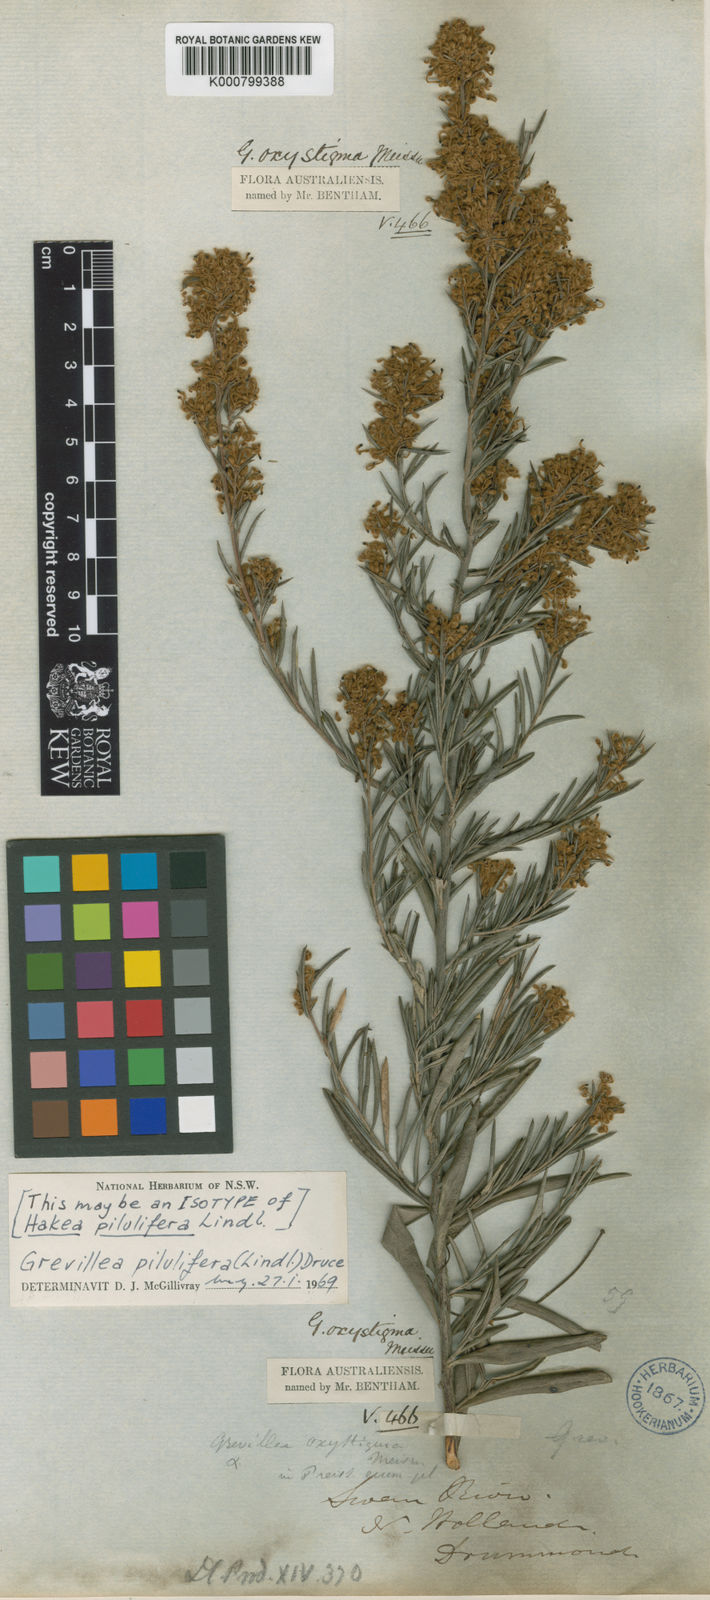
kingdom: Plantae
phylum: Tracheophyta
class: Magnoliopsida
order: Proteales
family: Proteaceae
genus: Grevillea
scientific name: Grevillea pilulifera
